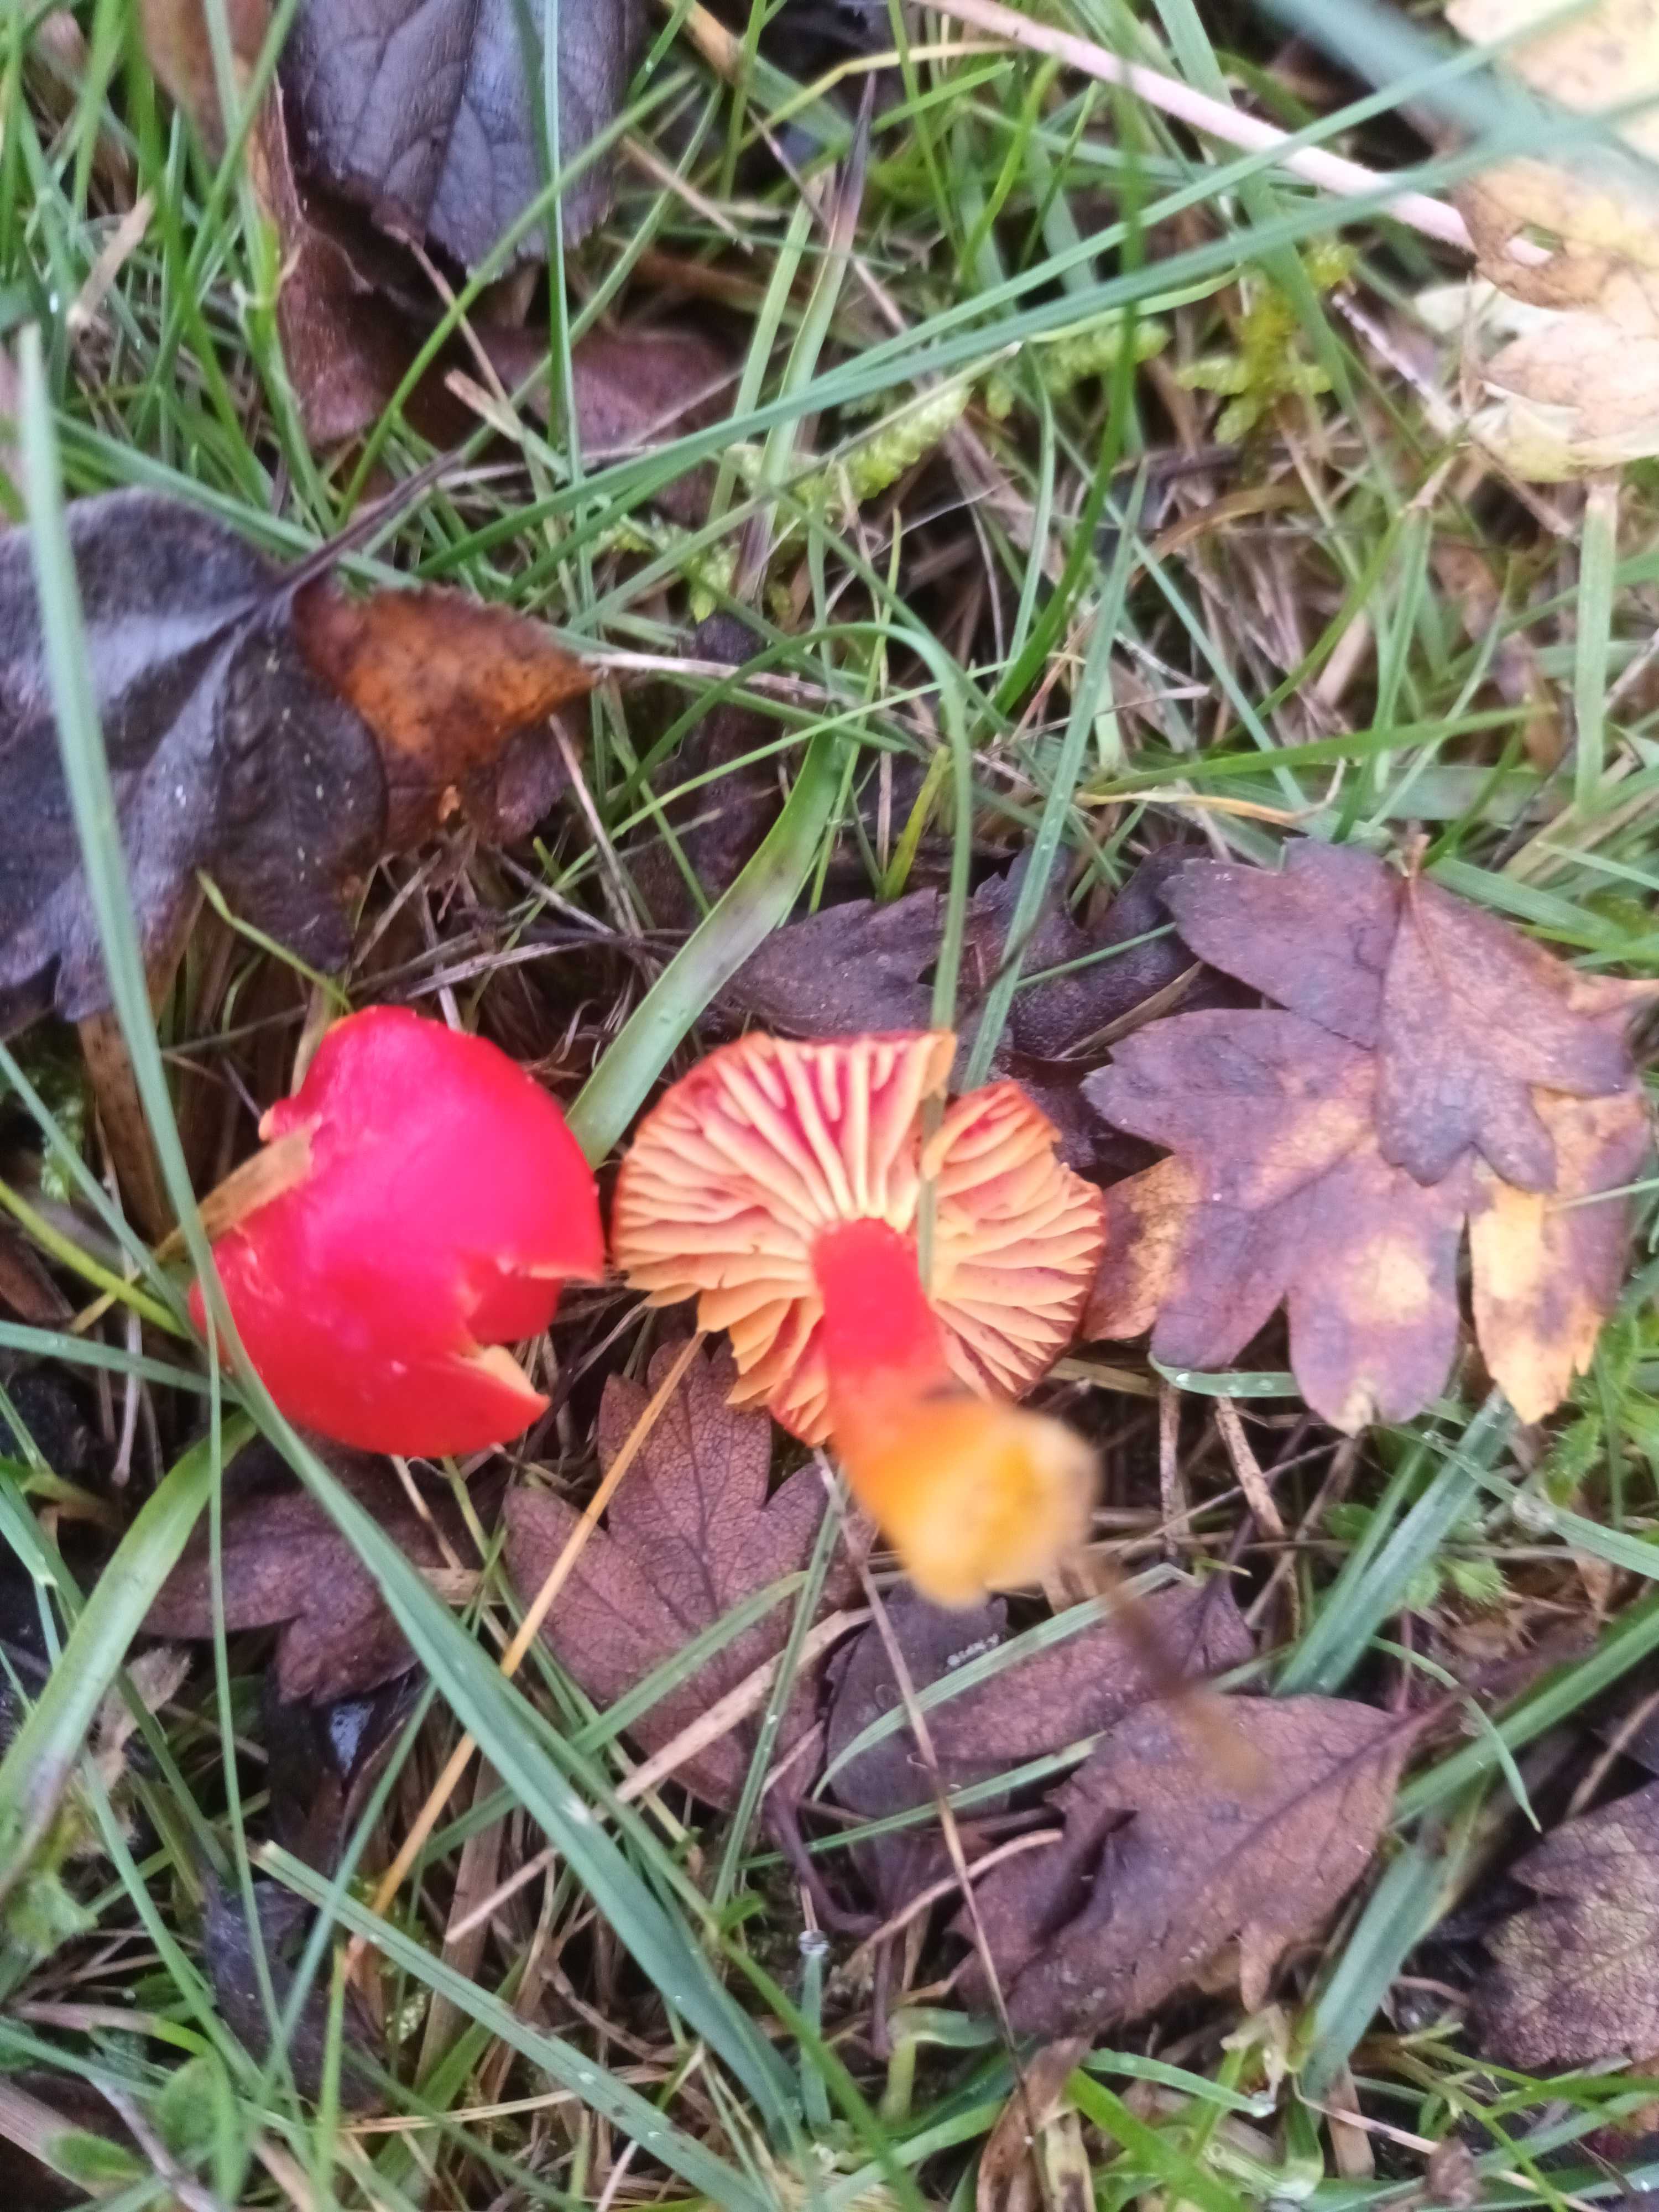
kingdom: Fungi
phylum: Basidiomycota
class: Agaricomycetes
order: Agaricales
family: Hygrophoraceae
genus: Hygrocybe
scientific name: Hygrocybe coccinea
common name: cinnober-vokshat
